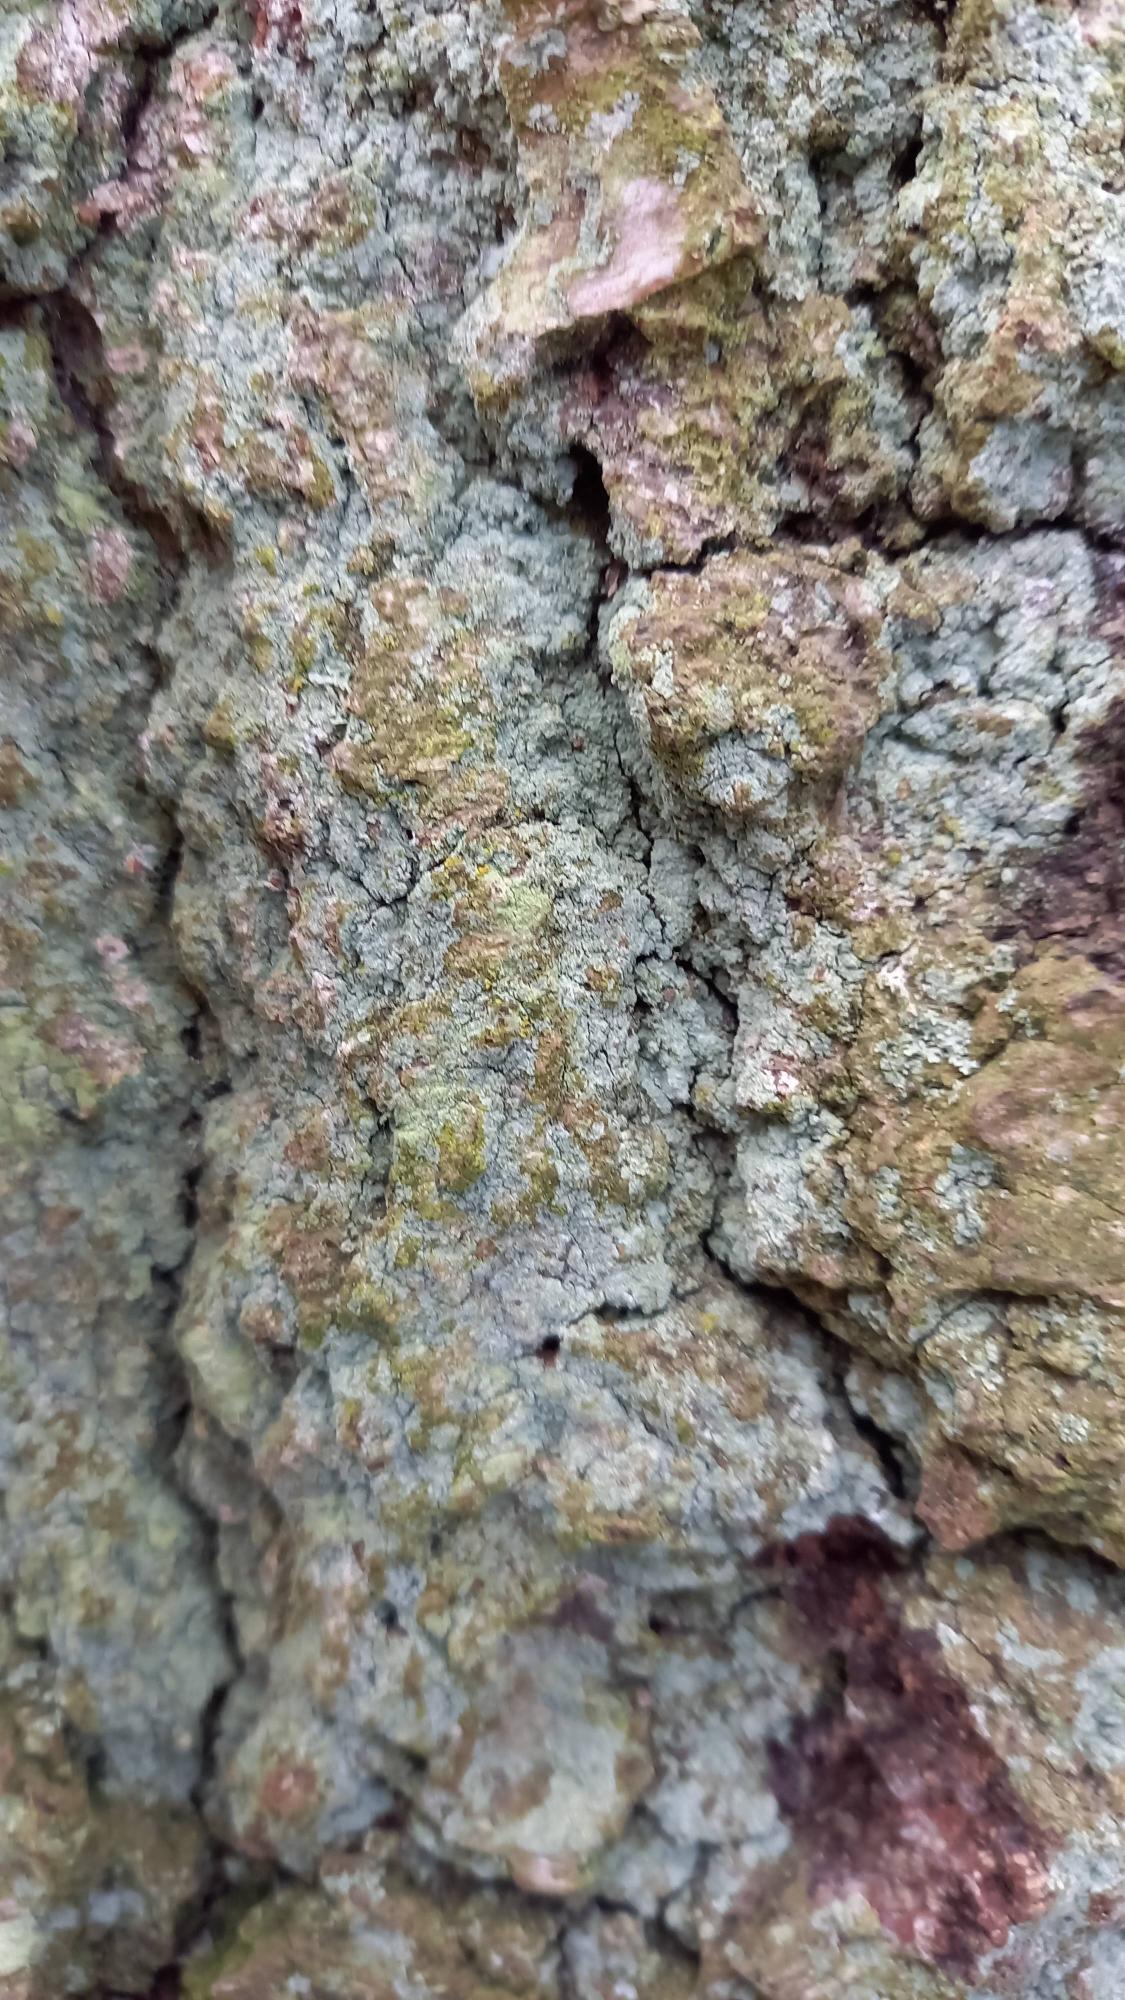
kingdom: Fungi
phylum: Ascomycota
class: Lecanoromycetes
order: Lecanorales
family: Stereocaulaceae
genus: Lepraria
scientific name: Lepraria incana
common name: Almindelig støvlav
